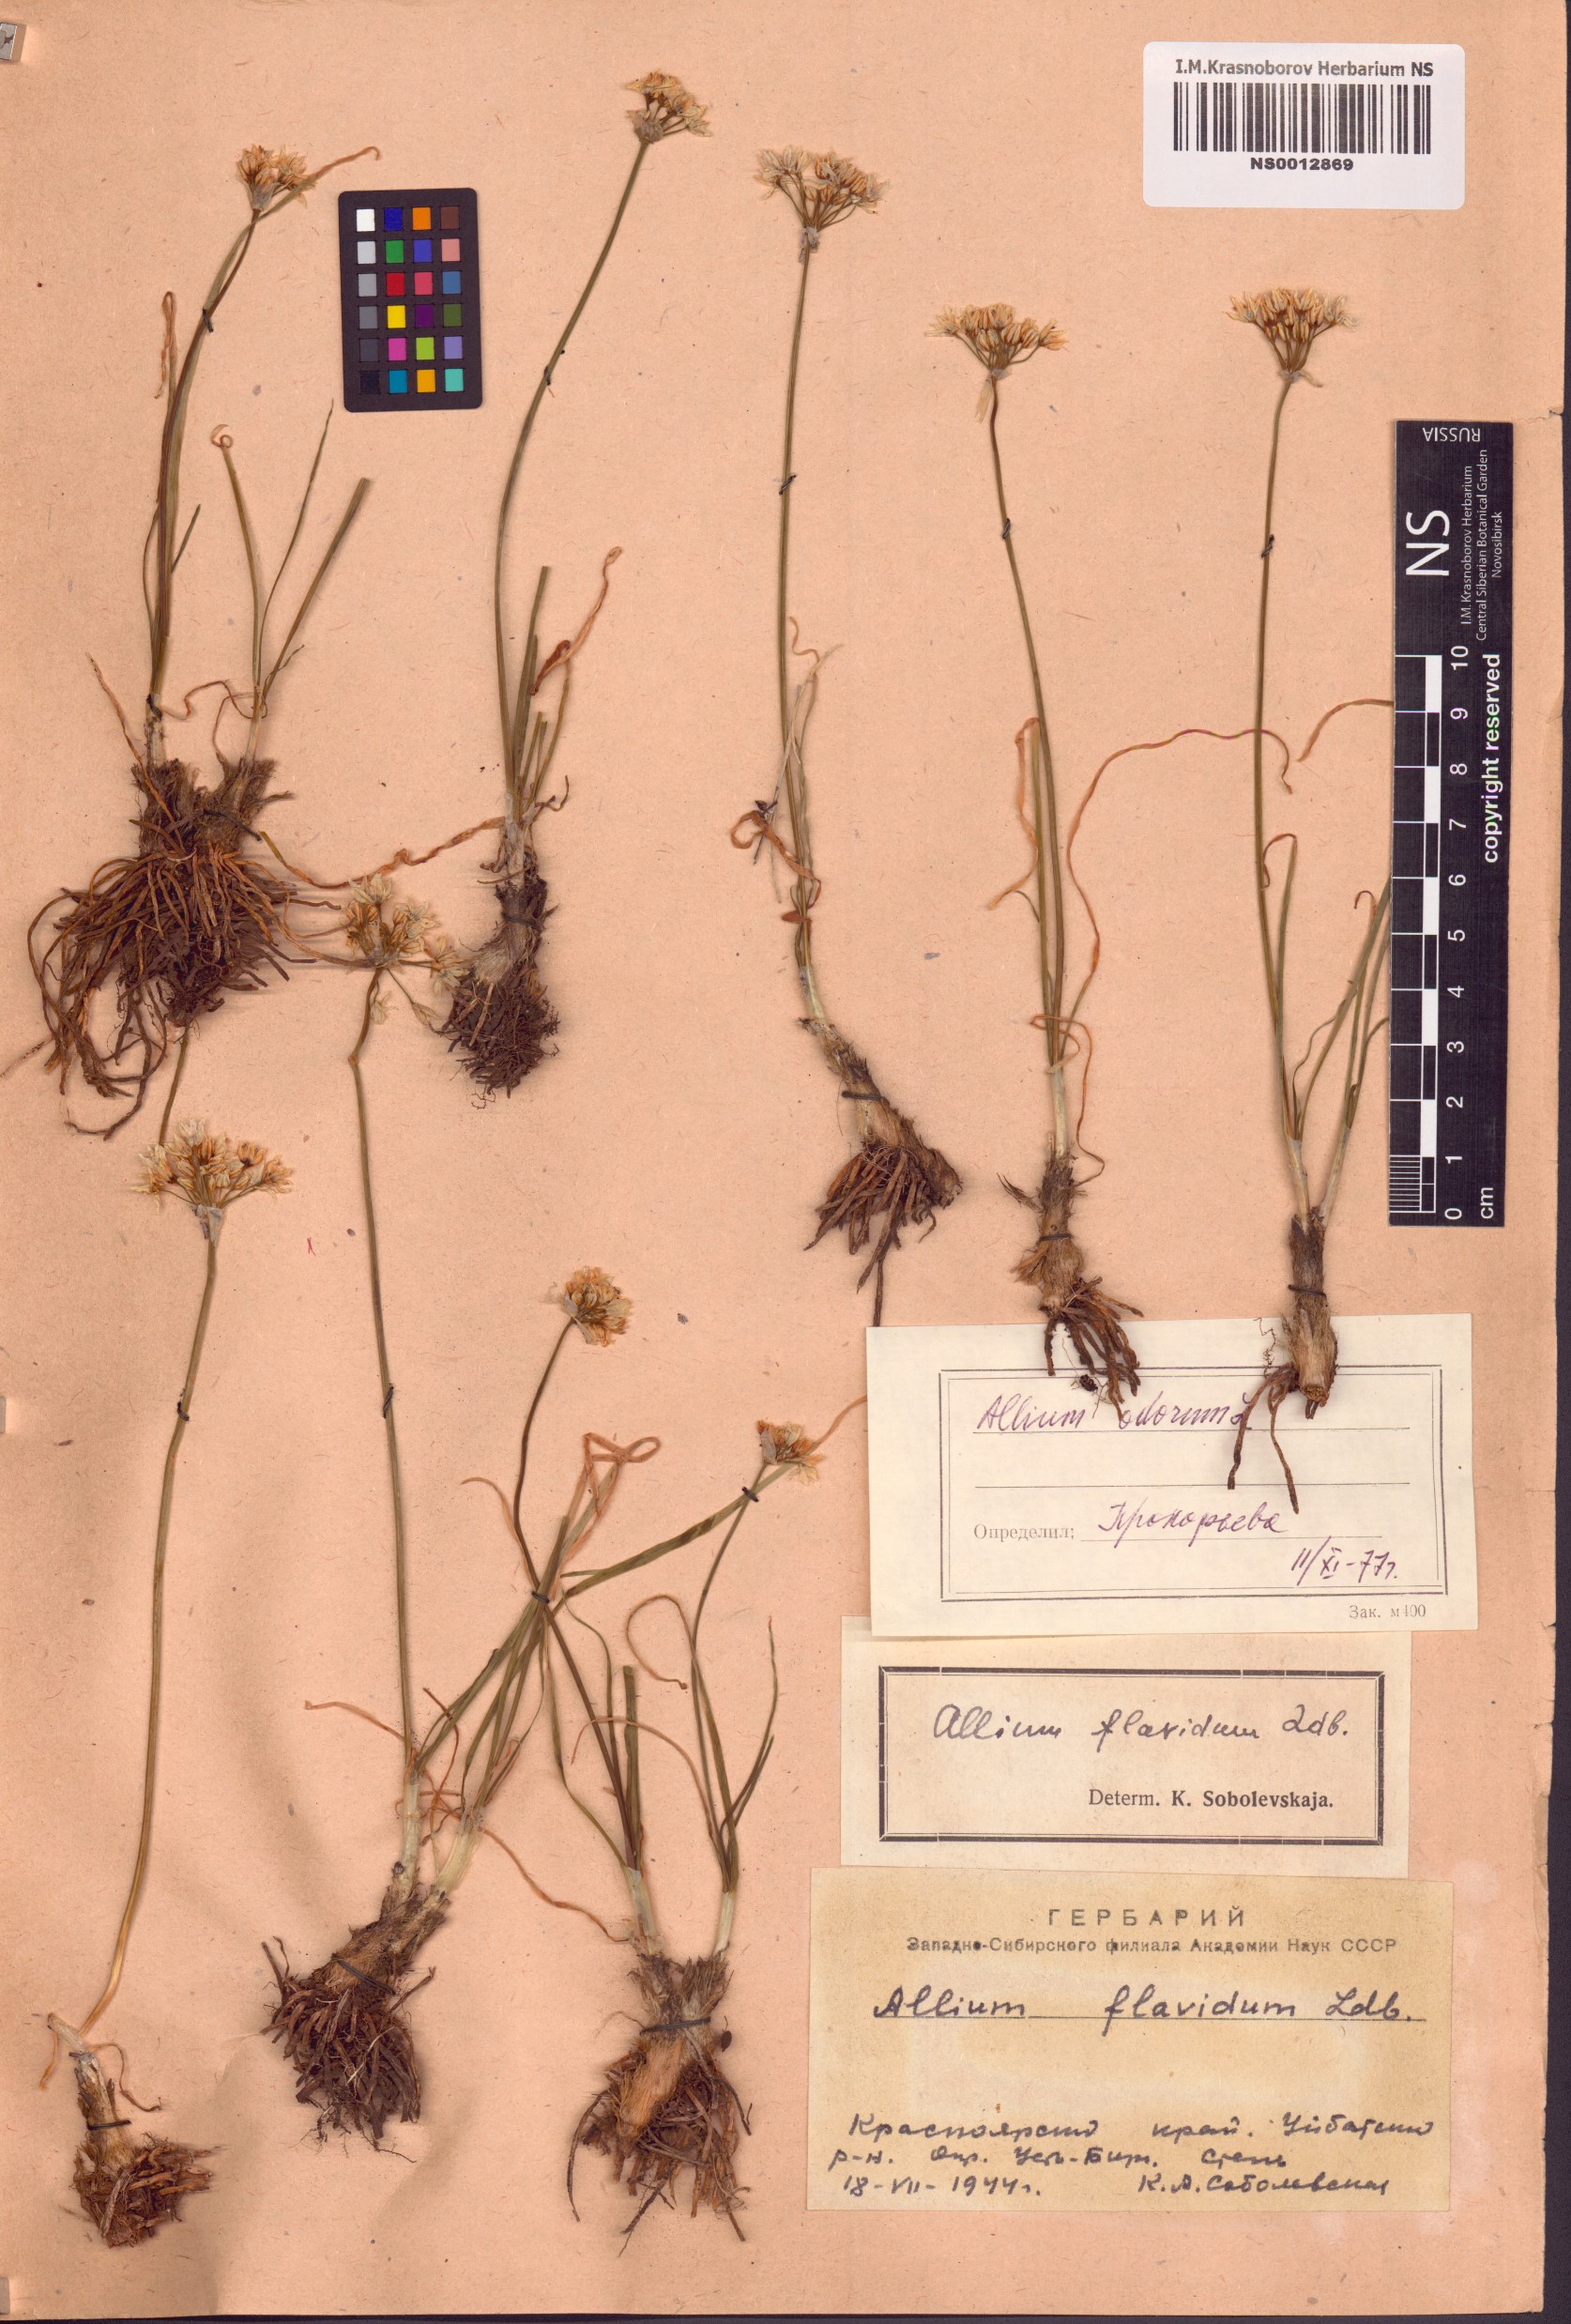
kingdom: Plantae
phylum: Tracheophyta
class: Liliopsida
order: Asparagales
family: Amaryllidaceae
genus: Allium
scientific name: Allium ramosum
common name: Fragrant garlic
